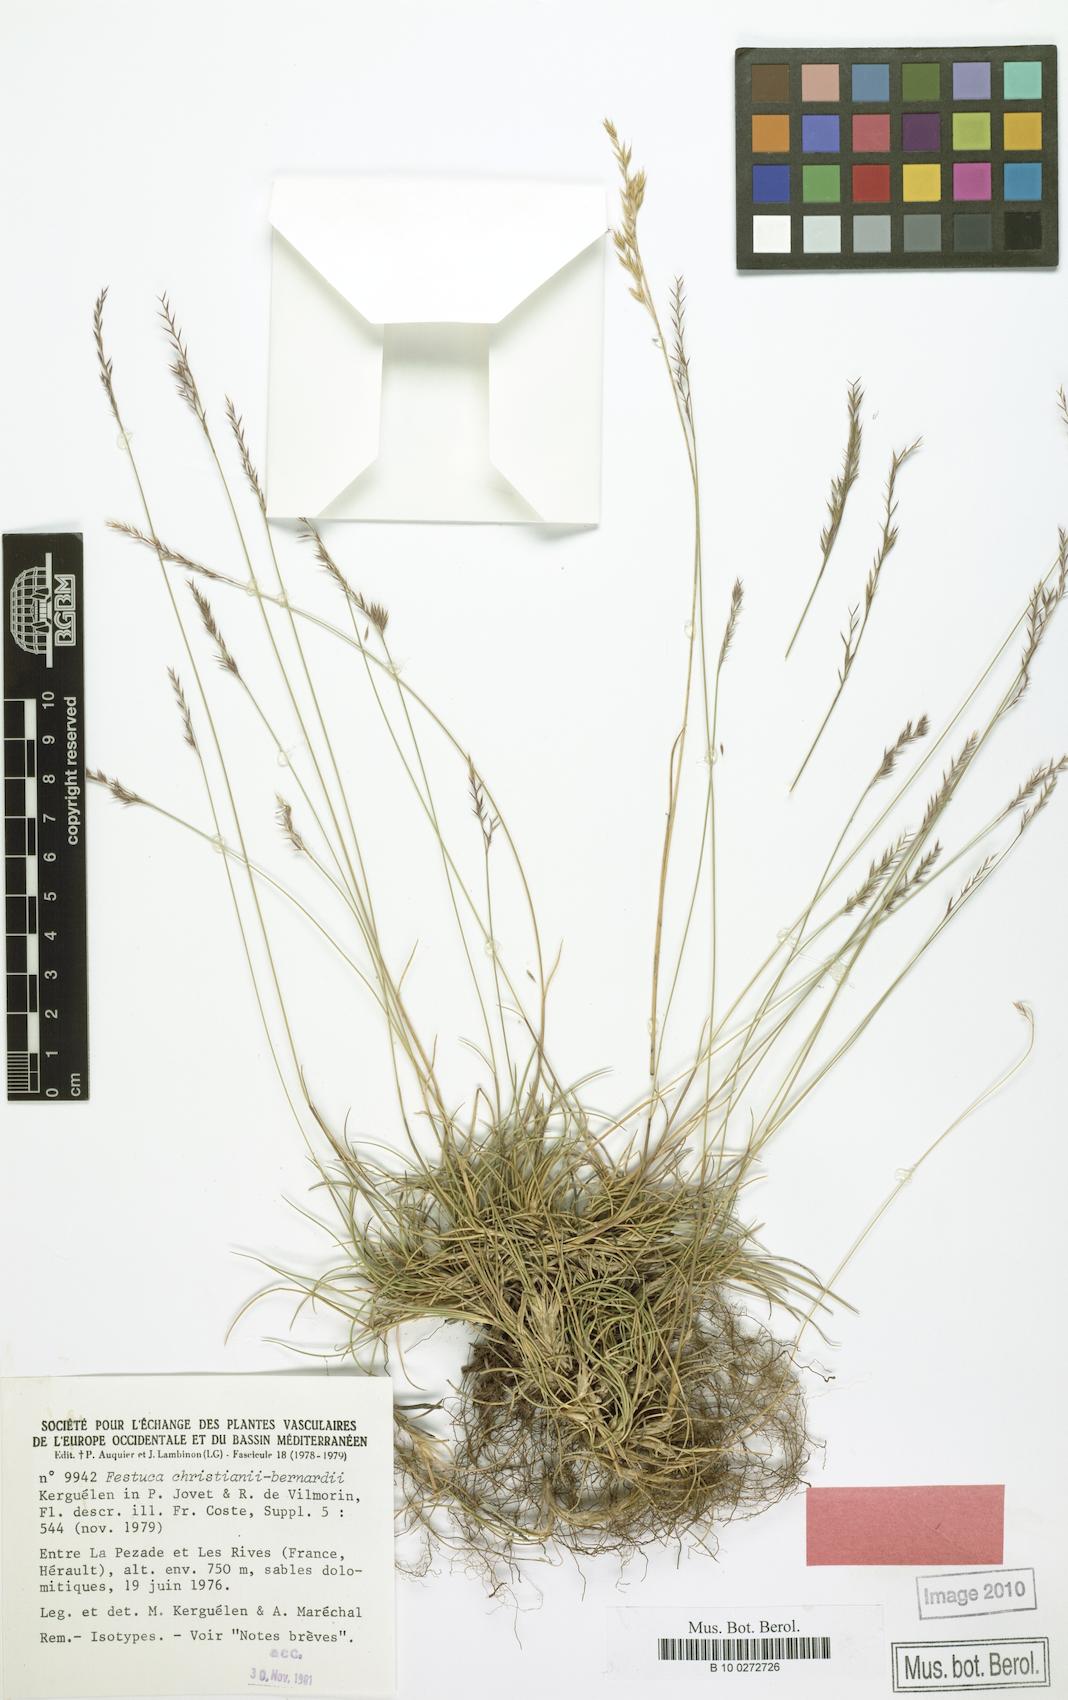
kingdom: Plantae
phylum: Tracheophyta
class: Liliopsida
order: Poales
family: Poaceae
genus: Festuca
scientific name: Festuca christianii-bernardii
